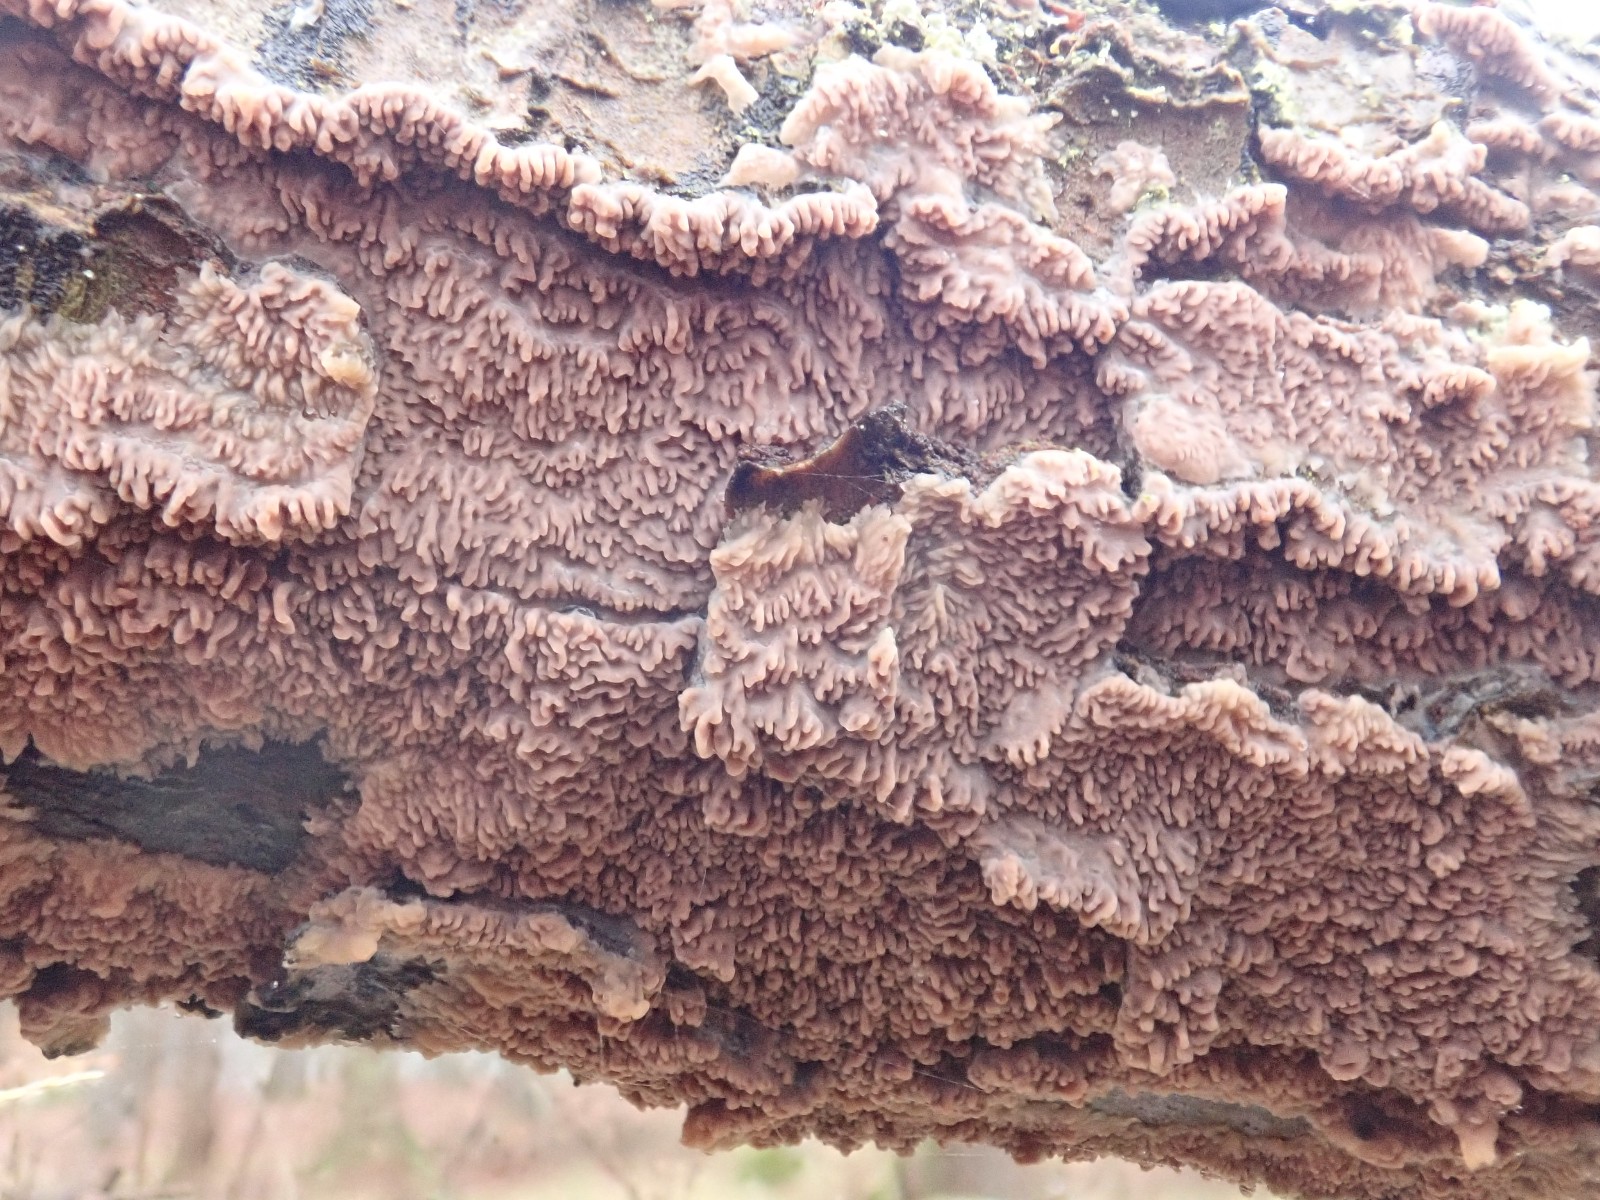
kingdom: Fungi
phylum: Basidiomycota
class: Agaricomycetes
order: Polyporales
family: Meruliaceae
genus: Phlebia
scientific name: Phlebia radiata
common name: stråle-åresvamp
